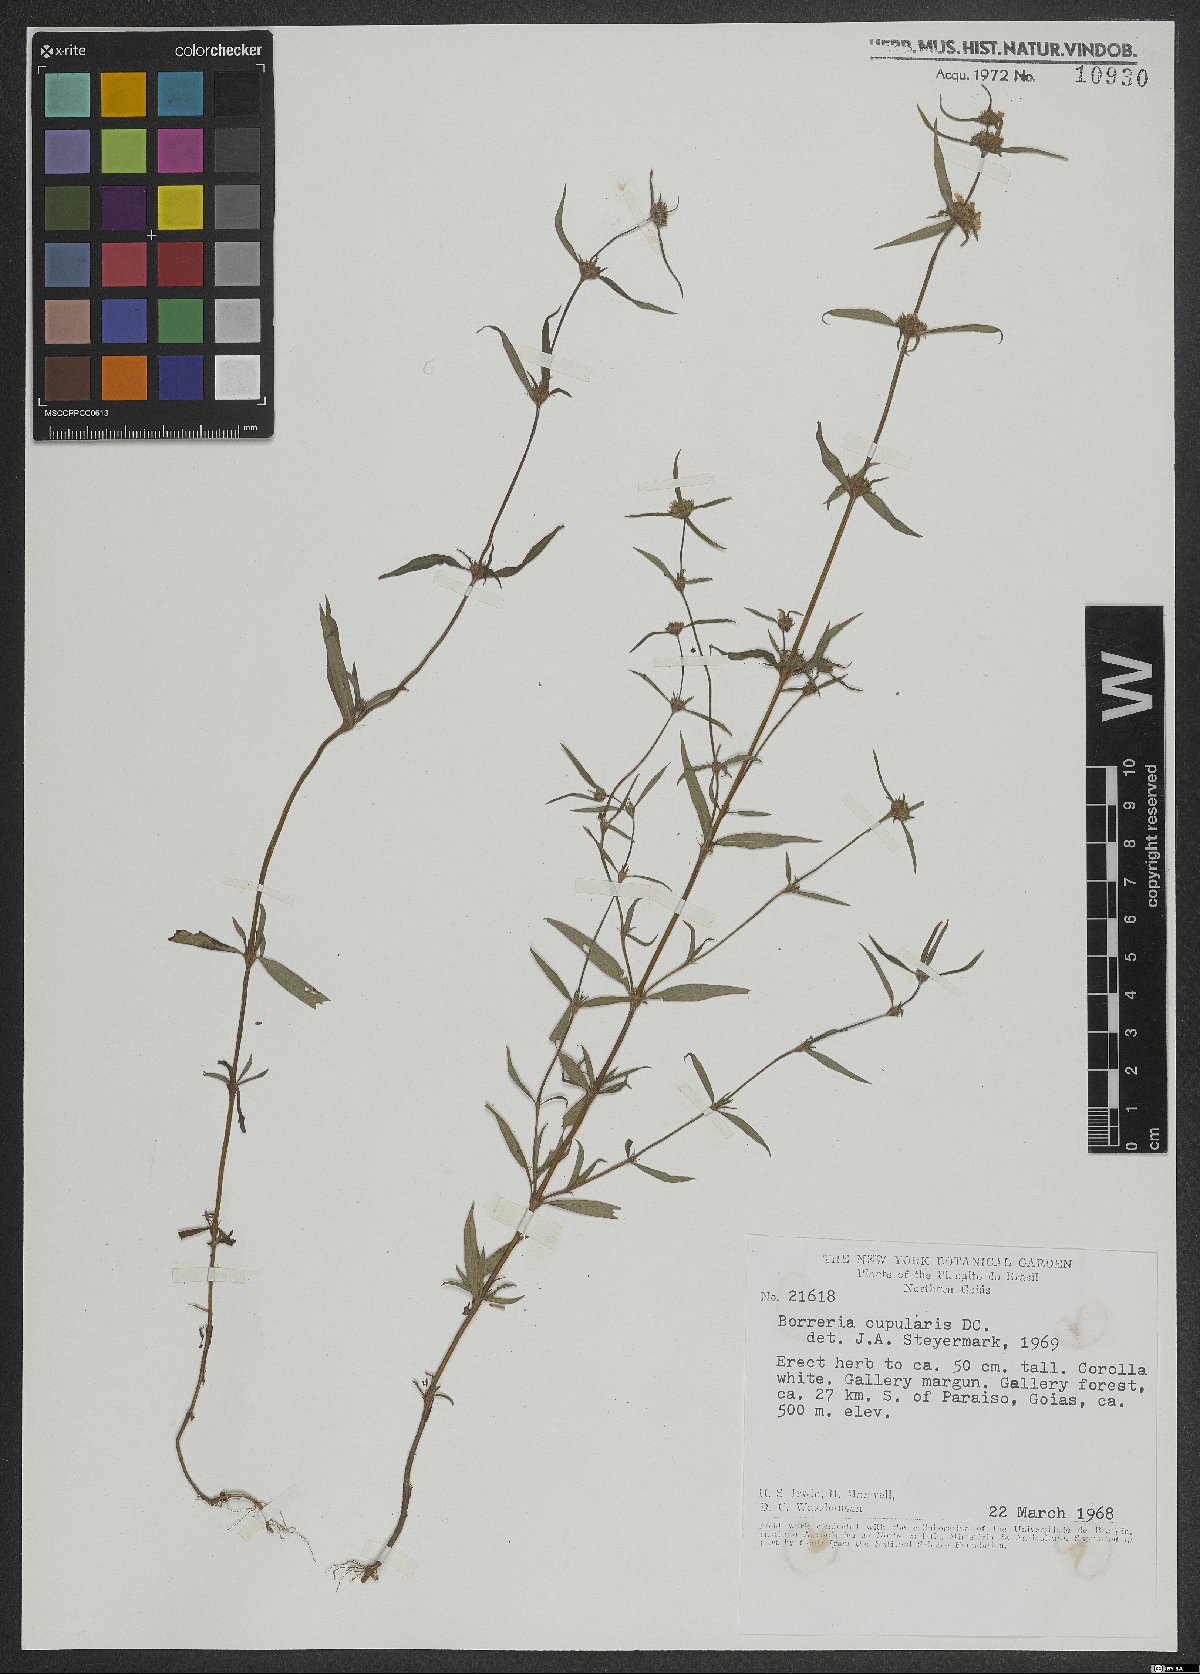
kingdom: Plantae
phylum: Tracheophyta
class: Magnoliopsida
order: Gentianales
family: Rubiaceae
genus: Spermacoce
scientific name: Spermacoce cupularis
